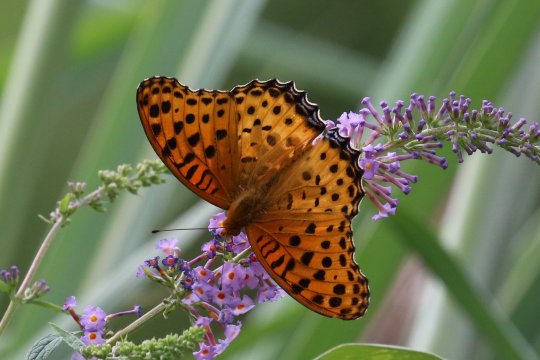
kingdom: Animalia
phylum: Arthropoda
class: Insecta
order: Lepidoptera
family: Nymphalidae
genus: Argynnis
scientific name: Argynnis hyperbius
